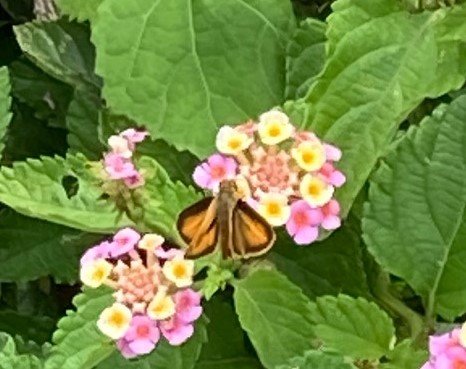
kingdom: Animalia
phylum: Arthropoda
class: Insecta
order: Lepidoptera
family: Hesperiidae
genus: Polites
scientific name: Polites vibex
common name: Whirlabout
